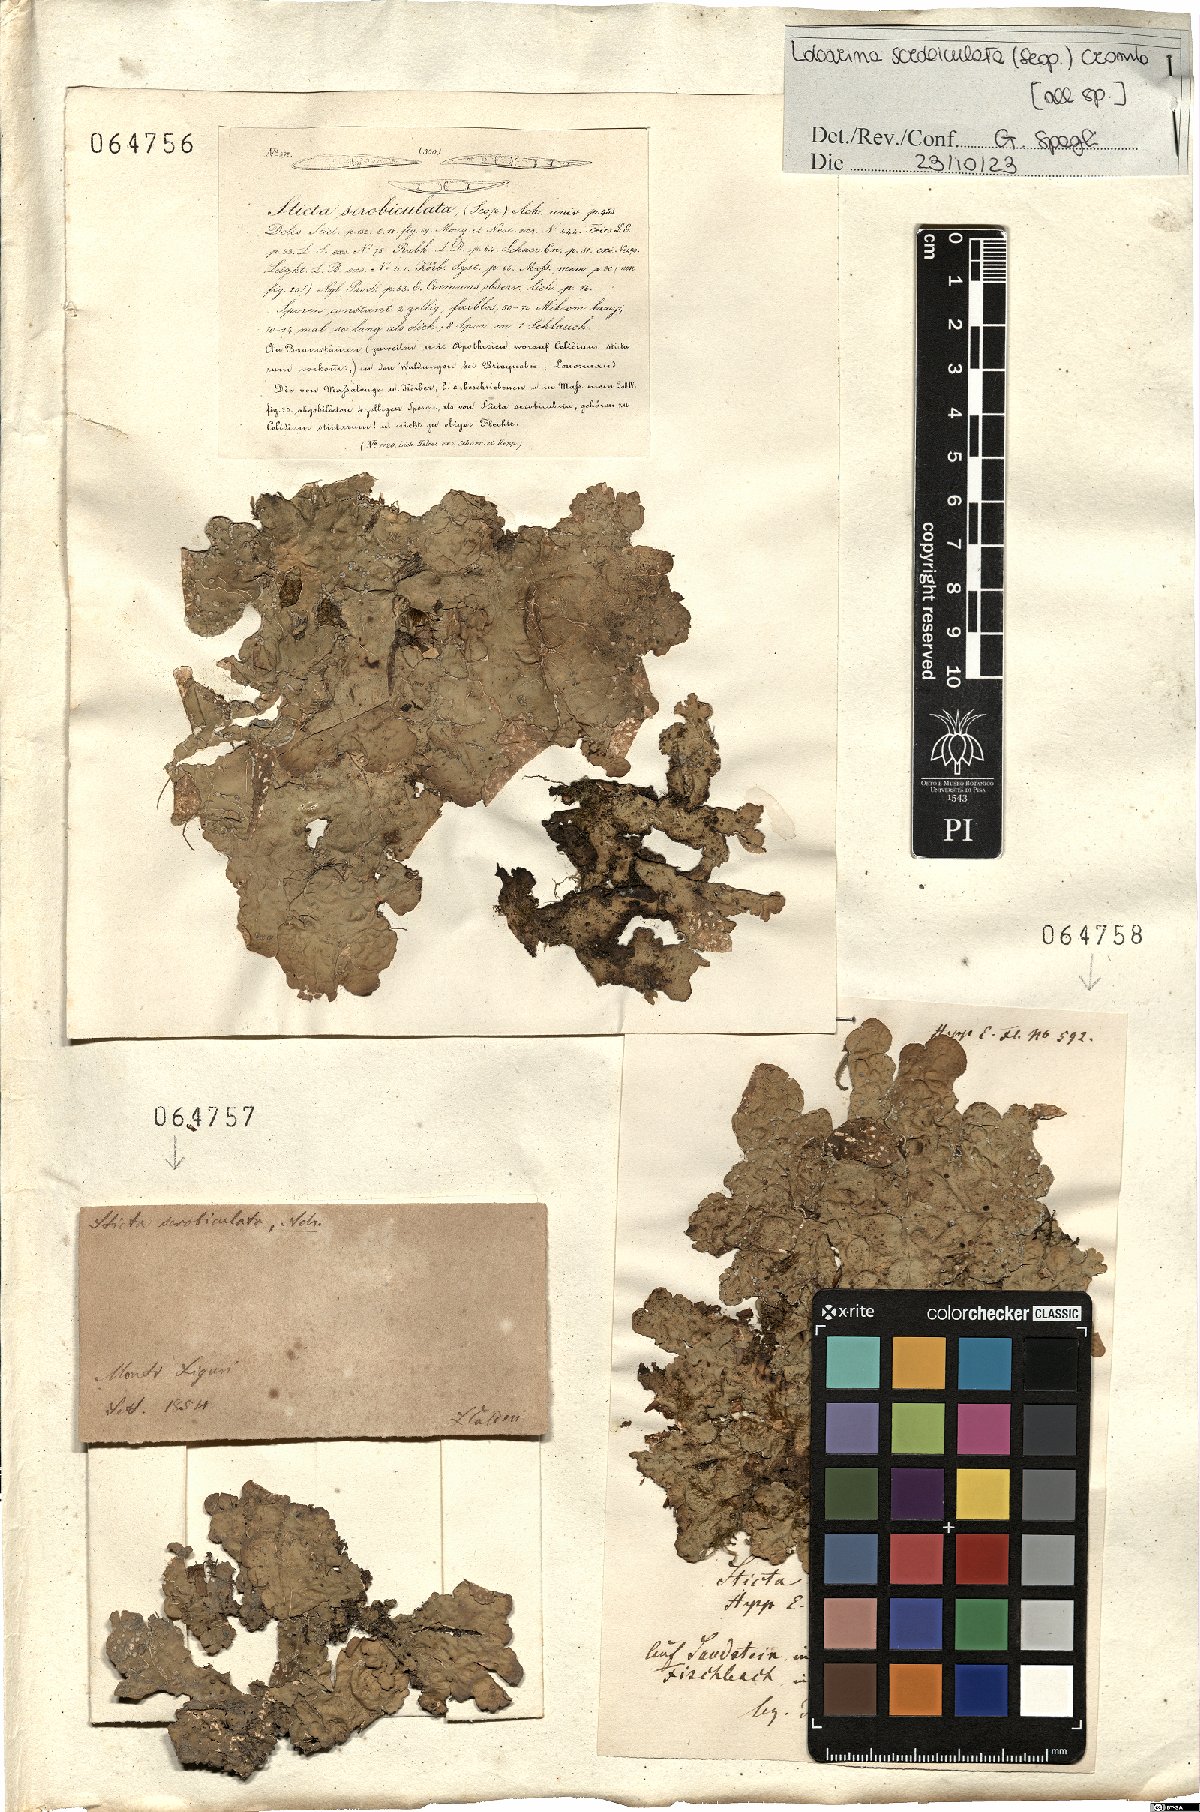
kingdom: Fungi
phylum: Ascomycota
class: Lecanoromycetes
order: Peltigerales
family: Lobariaceae
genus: Lobarina
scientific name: Lobarina scrobiculata
